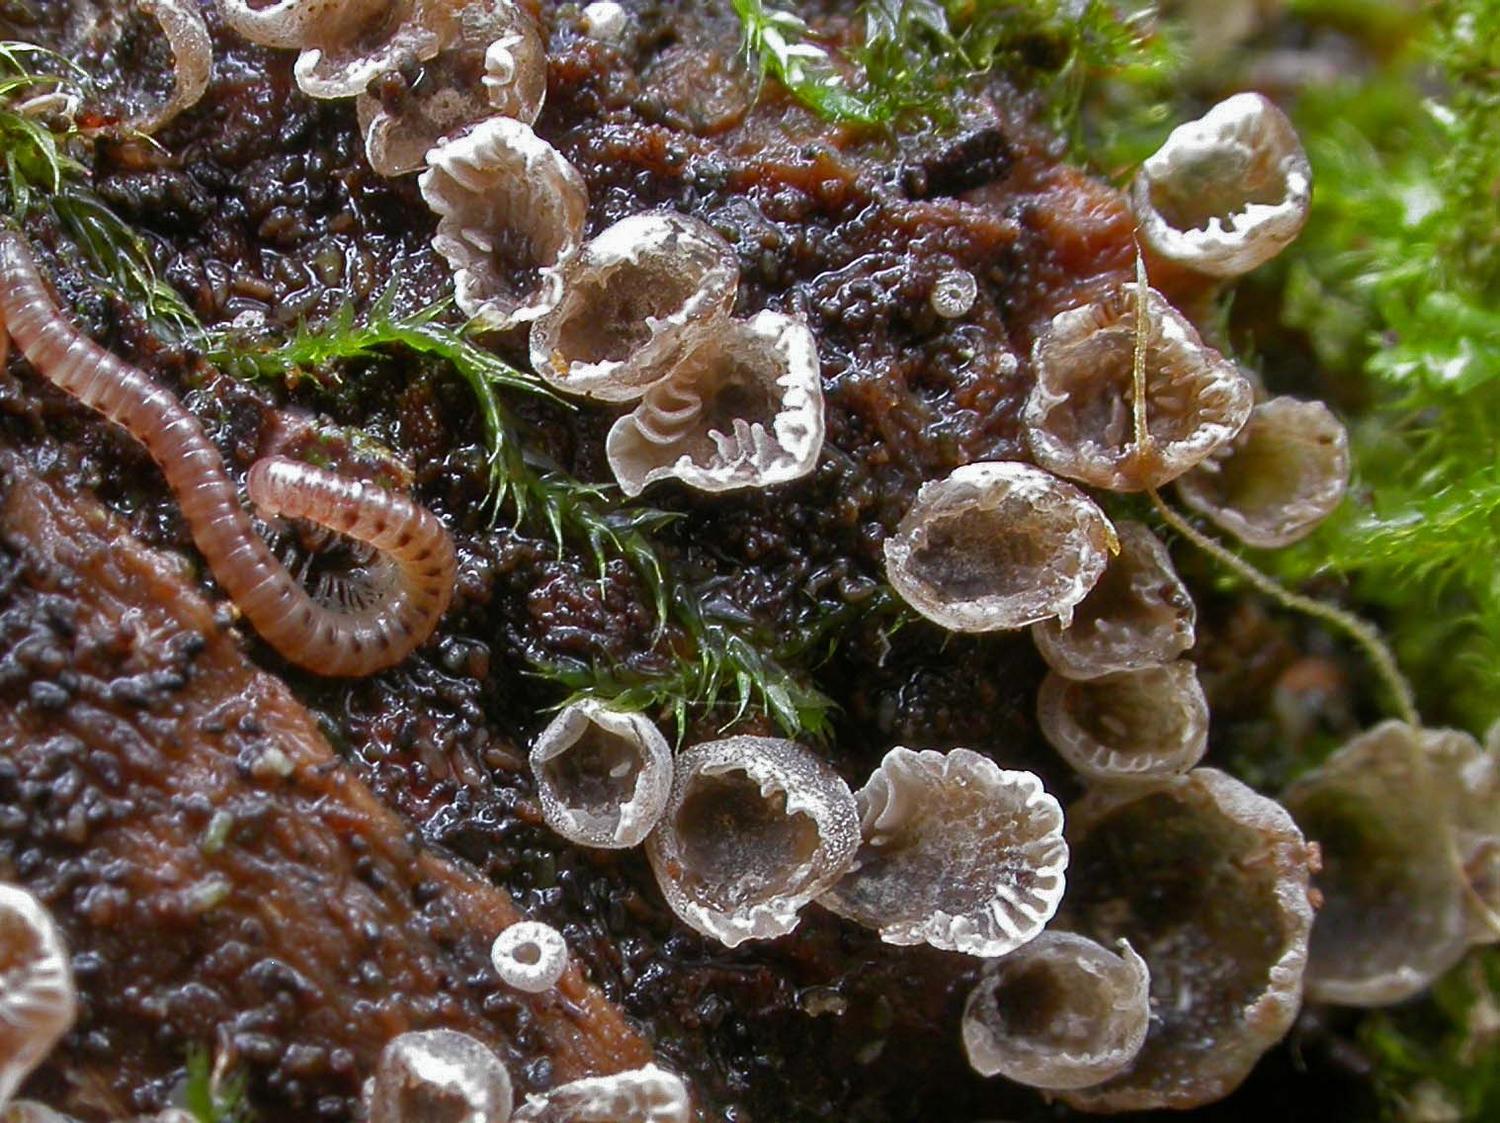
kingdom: Fungi
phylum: Basidiomycota
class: Agaricomycetes
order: Agaricales
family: Pleurotaceae
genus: Resupinatus
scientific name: Resupinatus applicatus
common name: lysfiltet barkhat
